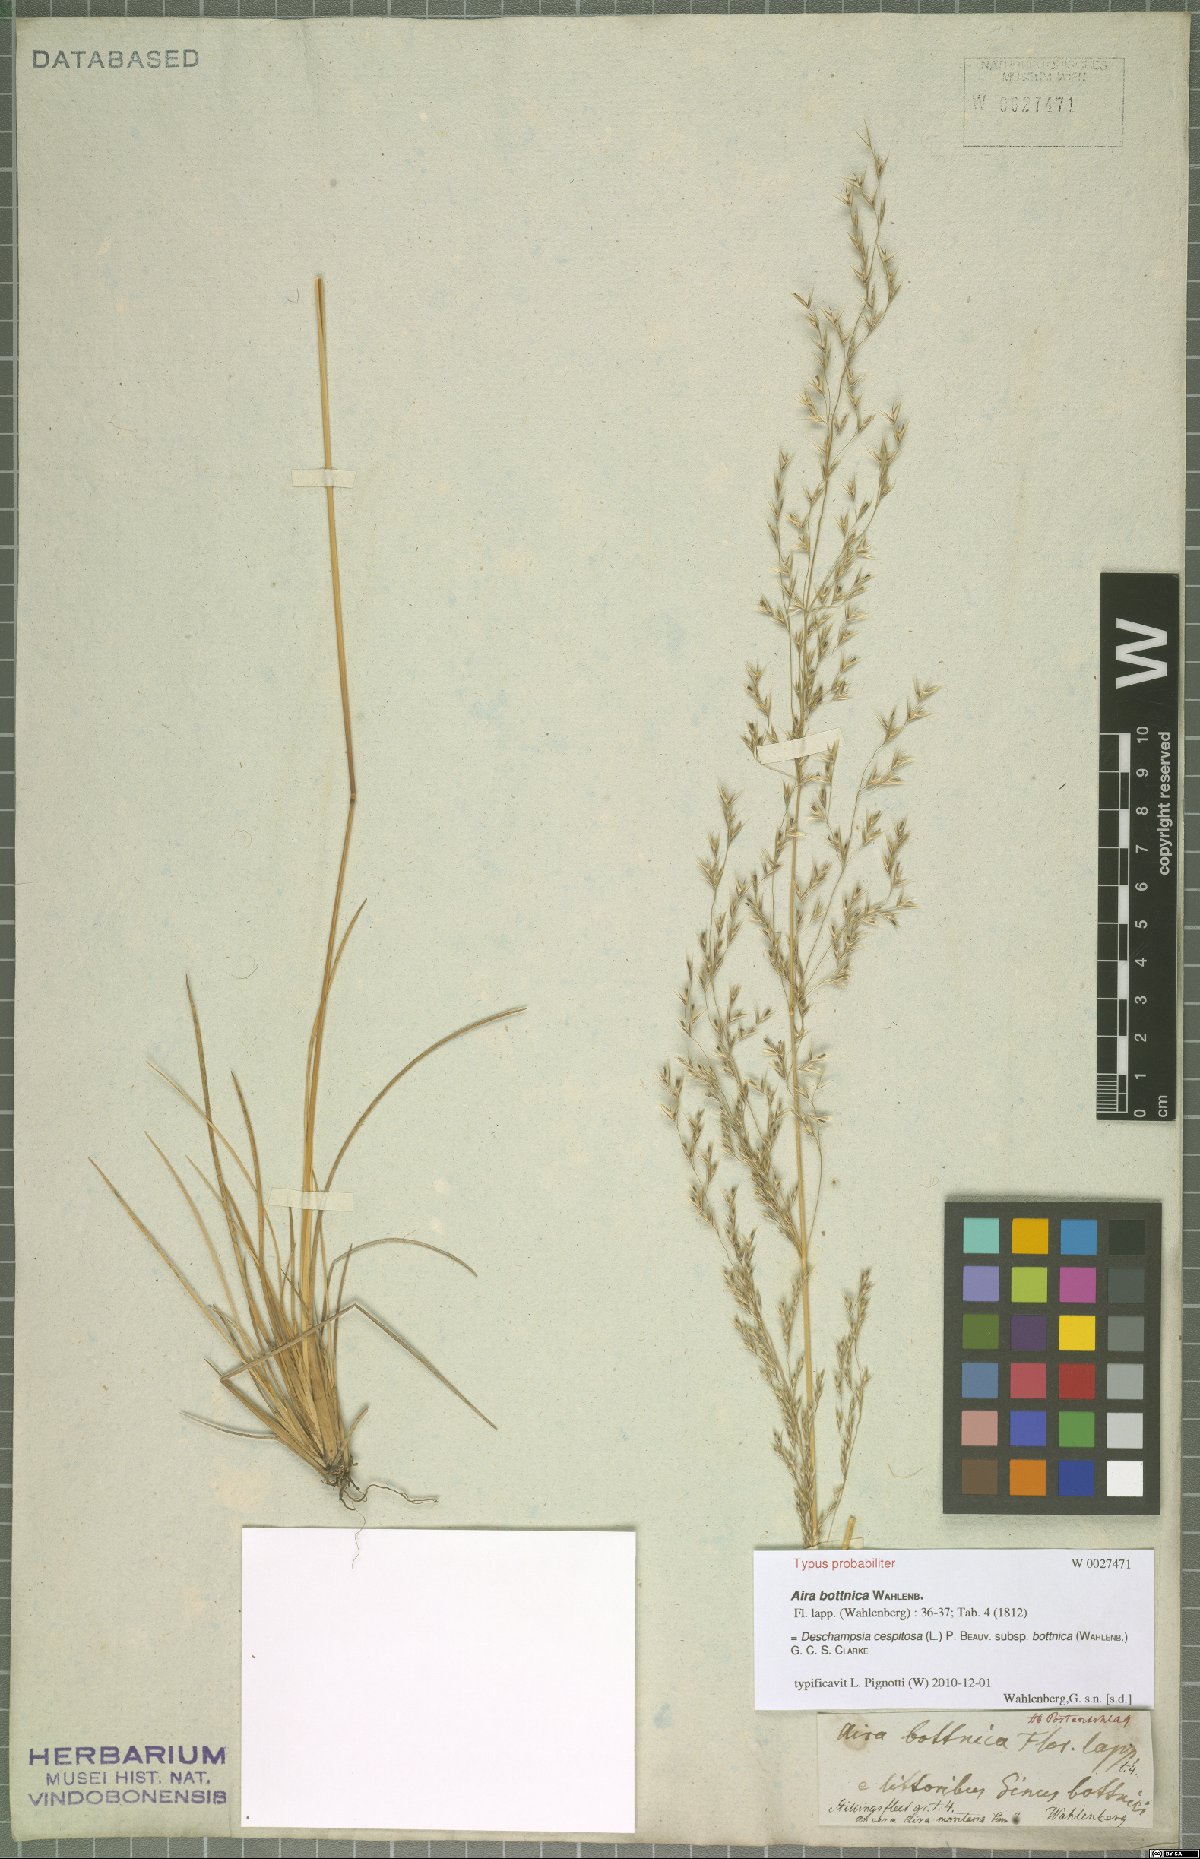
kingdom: Plantae
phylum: Tracheophyta
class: Liliopsida
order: Poales
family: Poaceae
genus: Deschampsia
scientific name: Deschampsia cespitosa
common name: Tufted hair-grass
